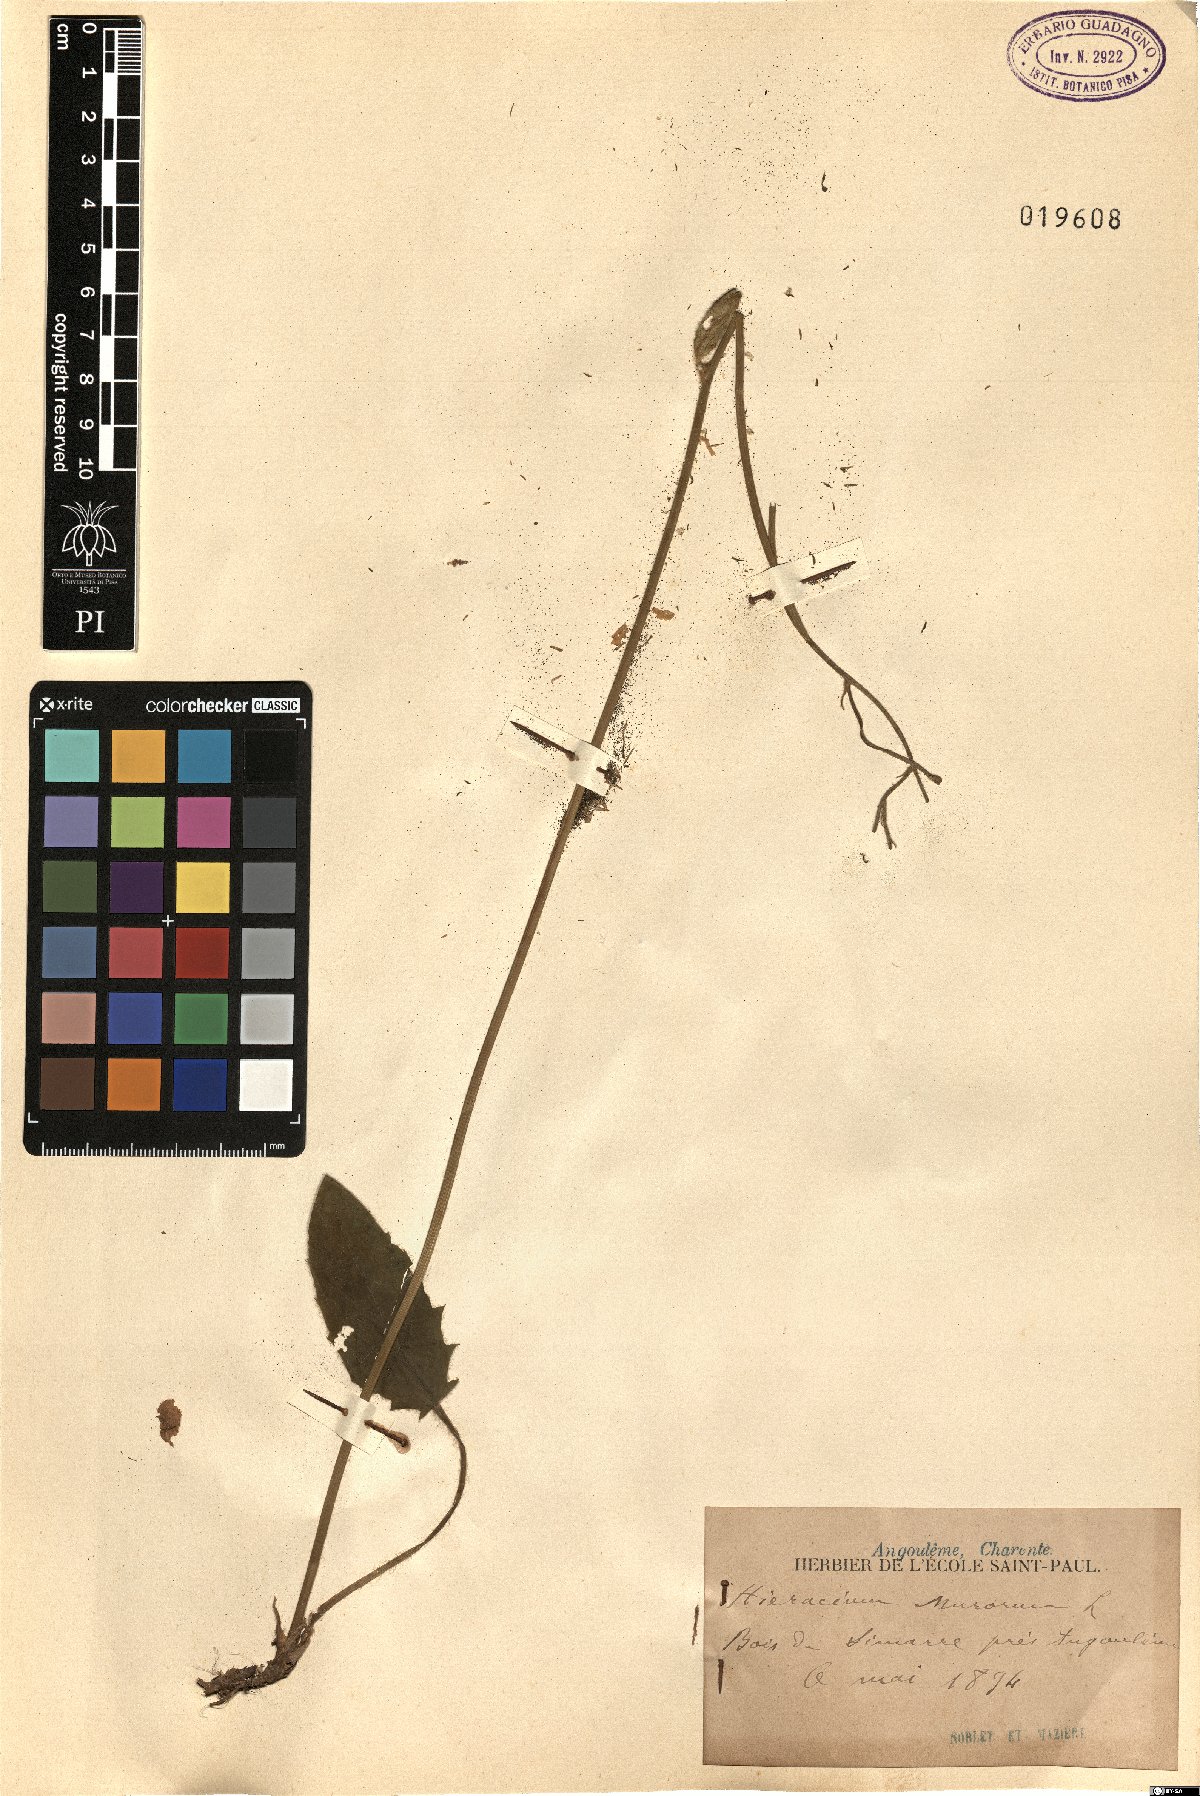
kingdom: Plantae
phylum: Tracheophyta
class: Magnoliopsida
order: Asterales
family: Asteraceae
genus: Hieracium
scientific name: Hieracium murorum
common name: Wall hawkweed
